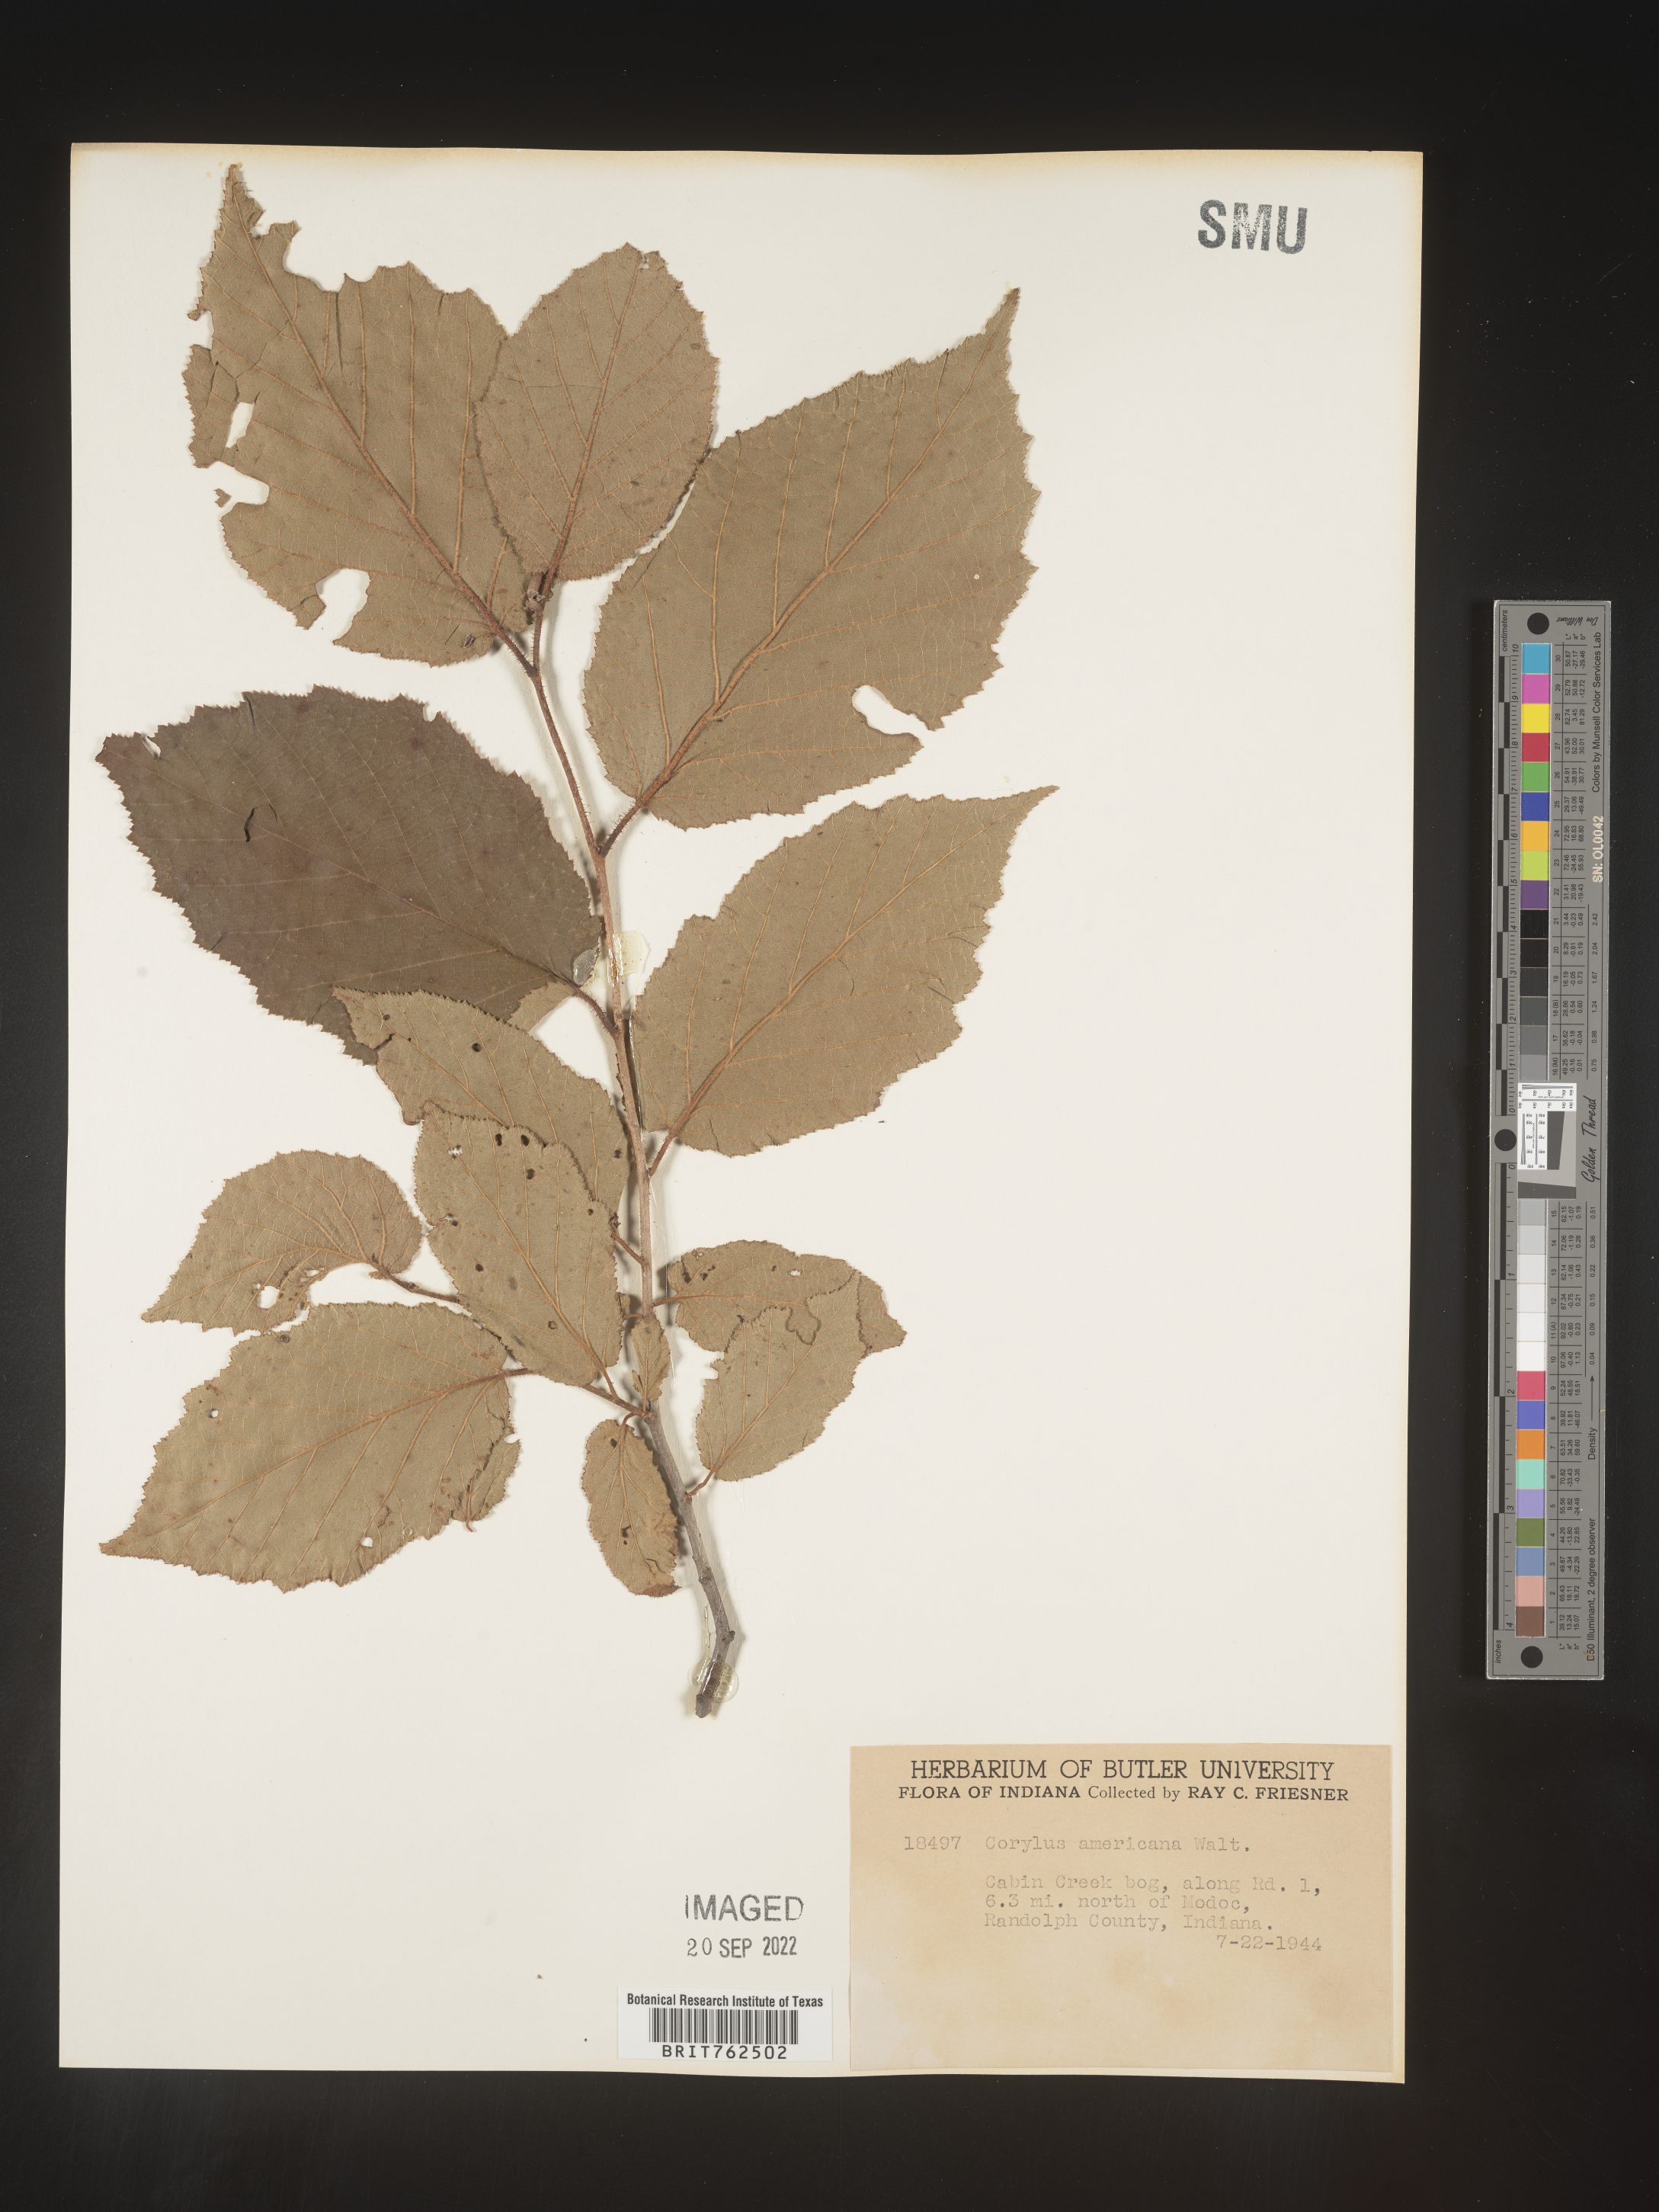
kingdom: Plantae
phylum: Tracheophyta
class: Magnoliopsida
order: Fagales
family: Betulaceae
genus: Corylus
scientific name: Corylus americana
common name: American hazel
